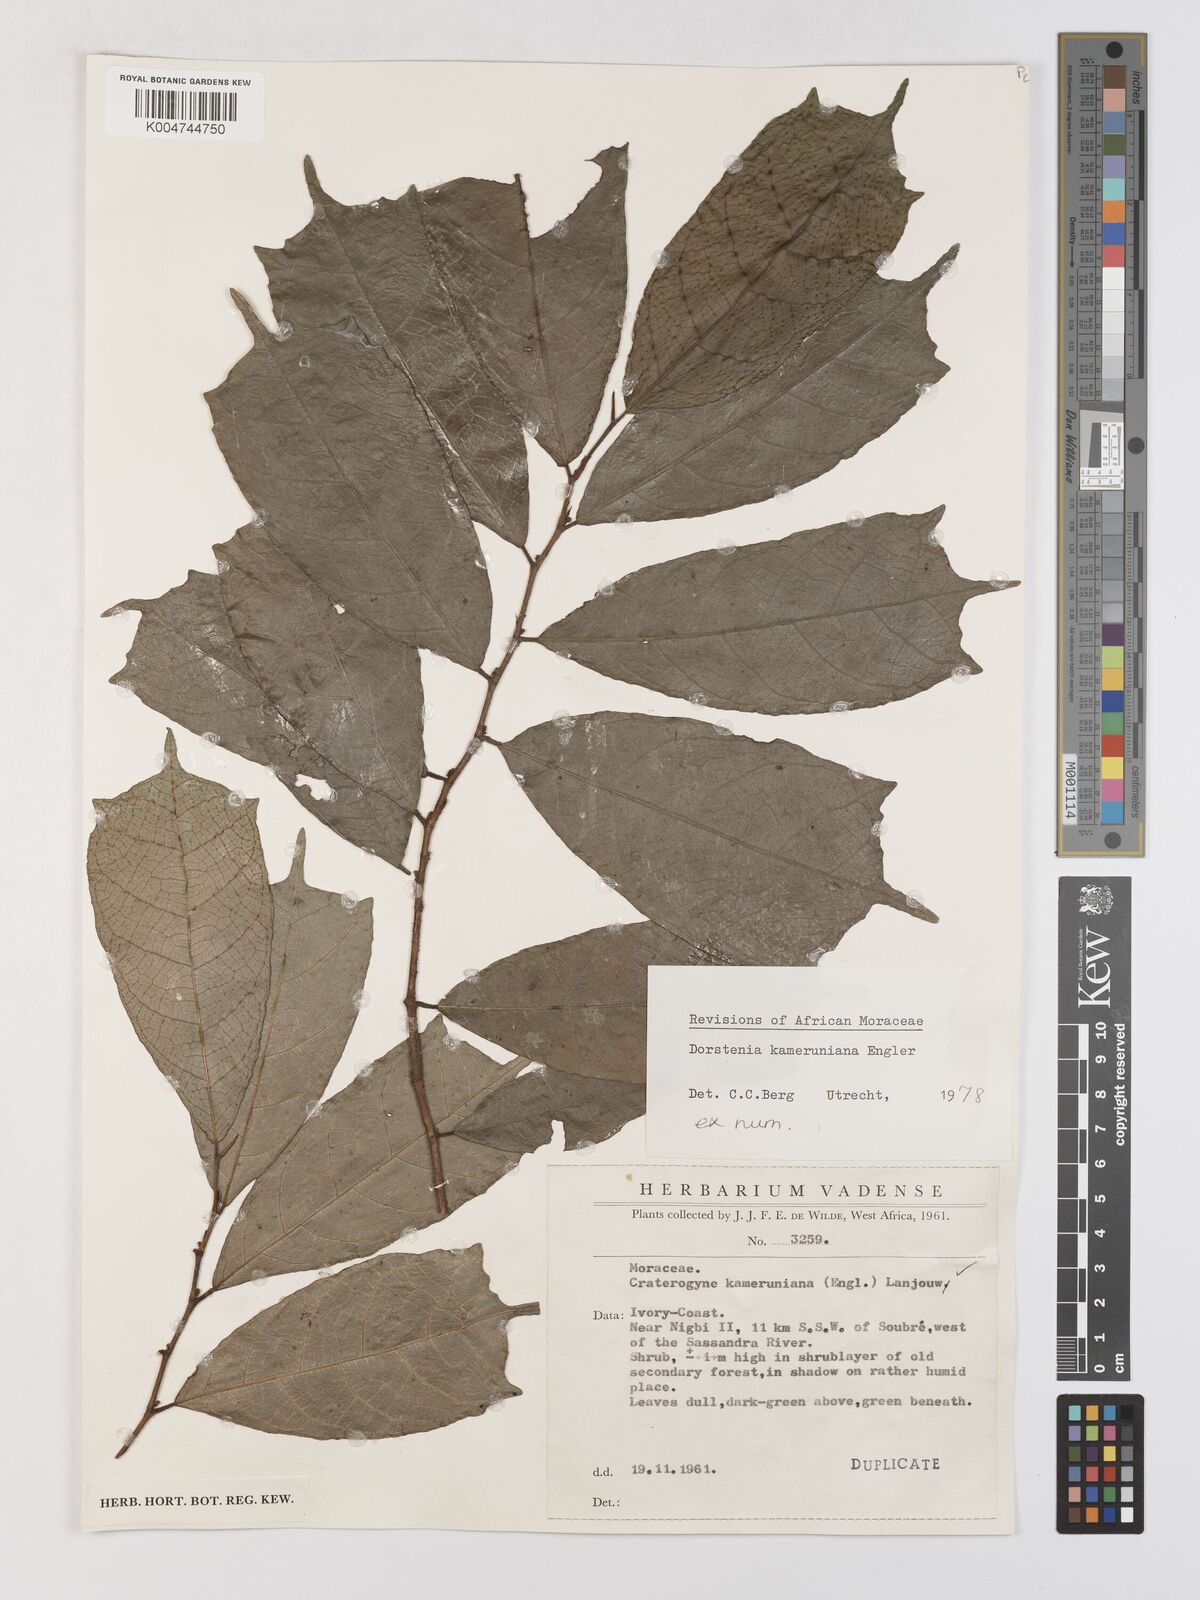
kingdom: Plantae
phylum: Tracheophyta
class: Magnoliopsida
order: Rosales
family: Moraceae
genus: Dorstenia
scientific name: Dorstenia kameruniana
